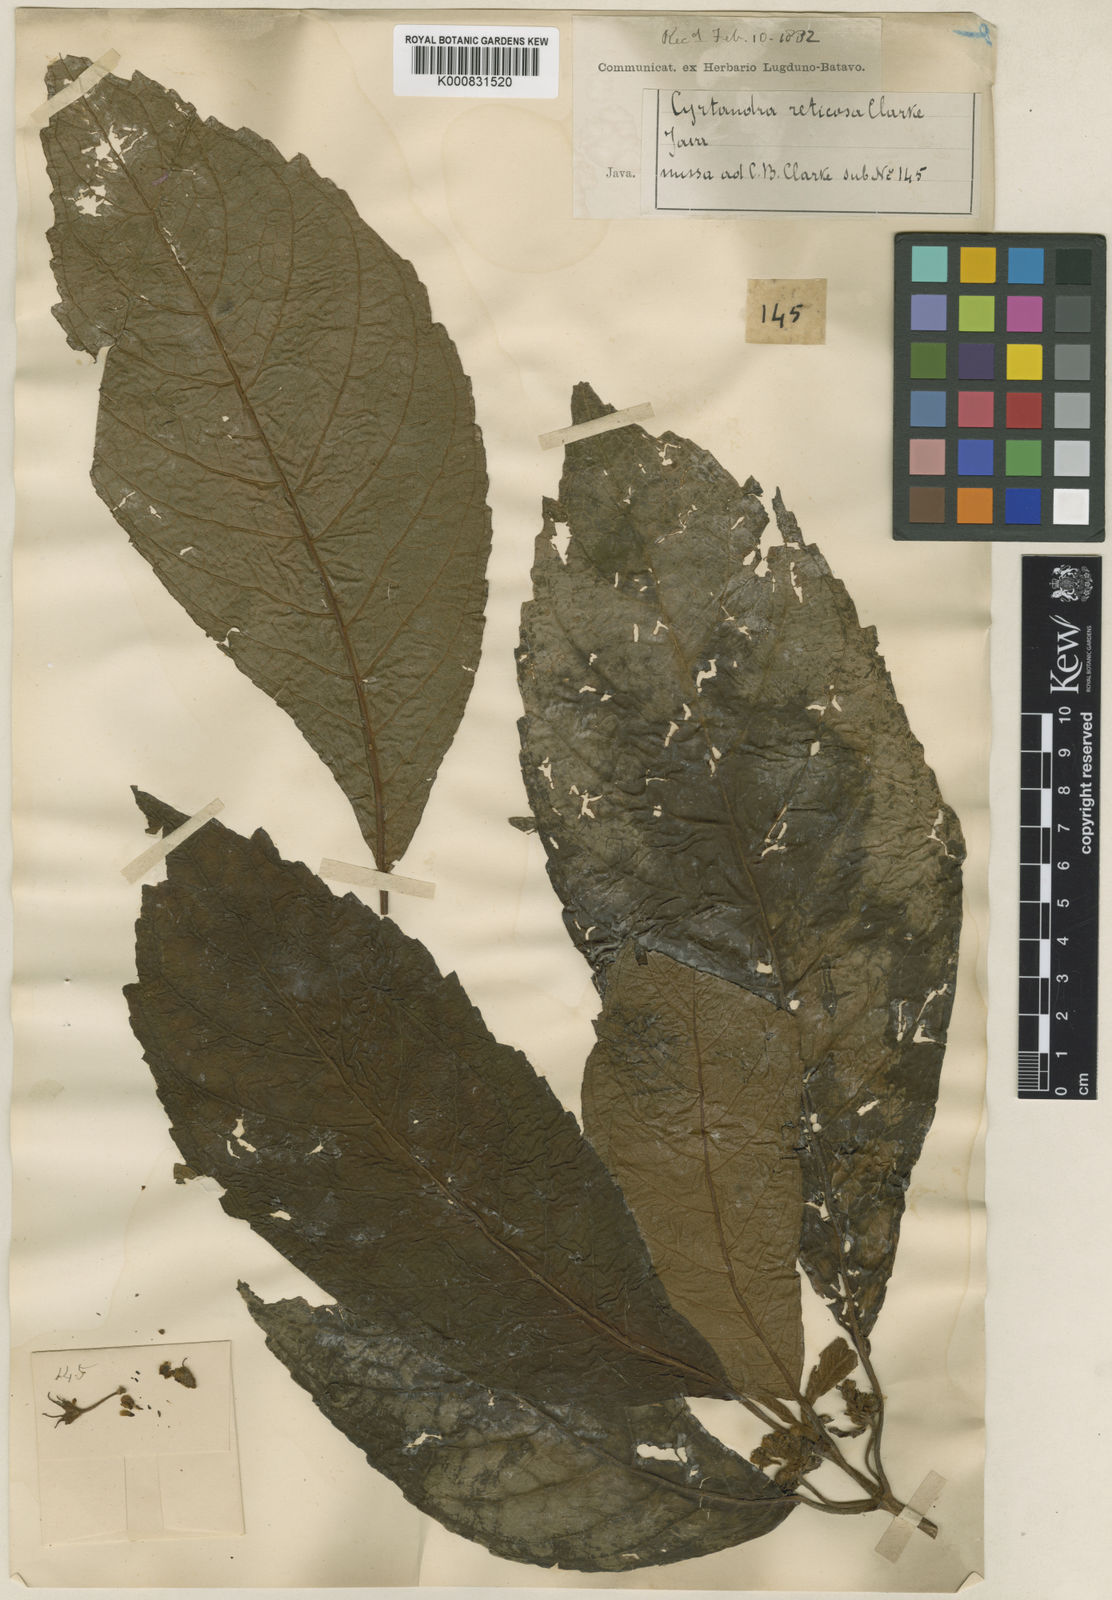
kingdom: Plantae
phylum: Tracheophyta
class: Magnoliopsida
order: Lamiales
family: Gesneriaceae
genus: Cyrtandra
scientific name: Cyrtandra nemorosa
